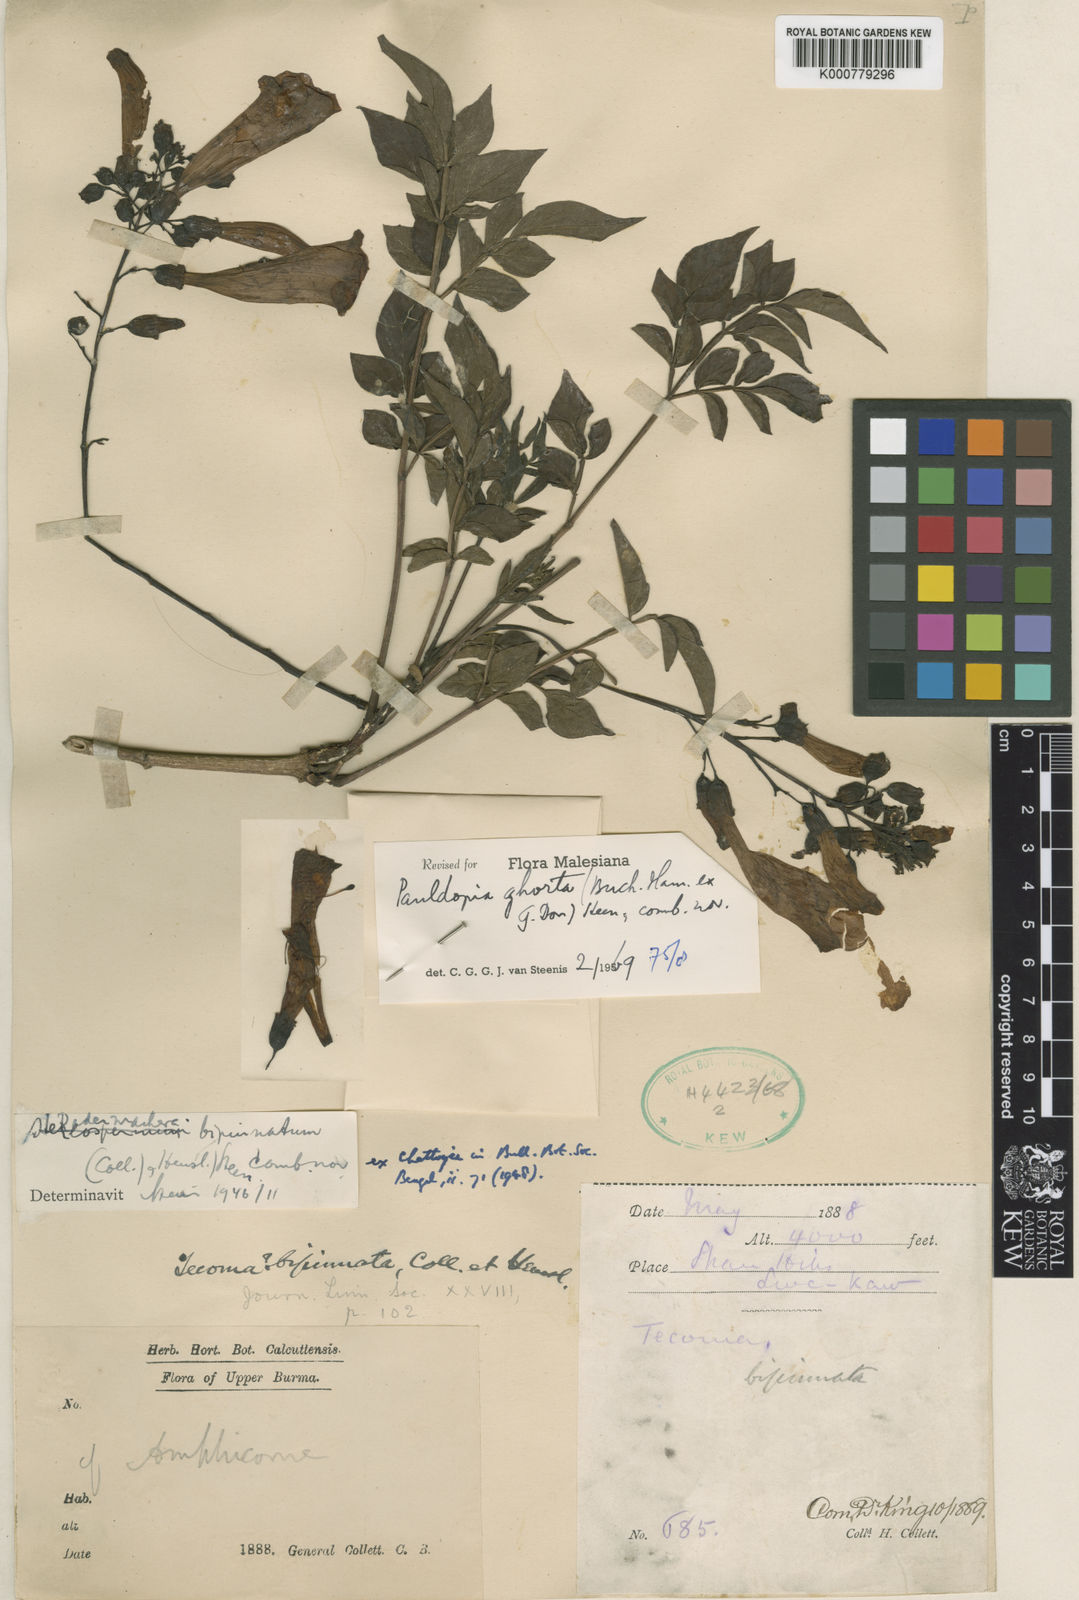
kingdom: Plantae
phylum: Tracheophyta
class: Magnoliopsida
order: Lamiales
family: Bignoniaceae
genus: Pauldopia
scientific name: Pauldopia
